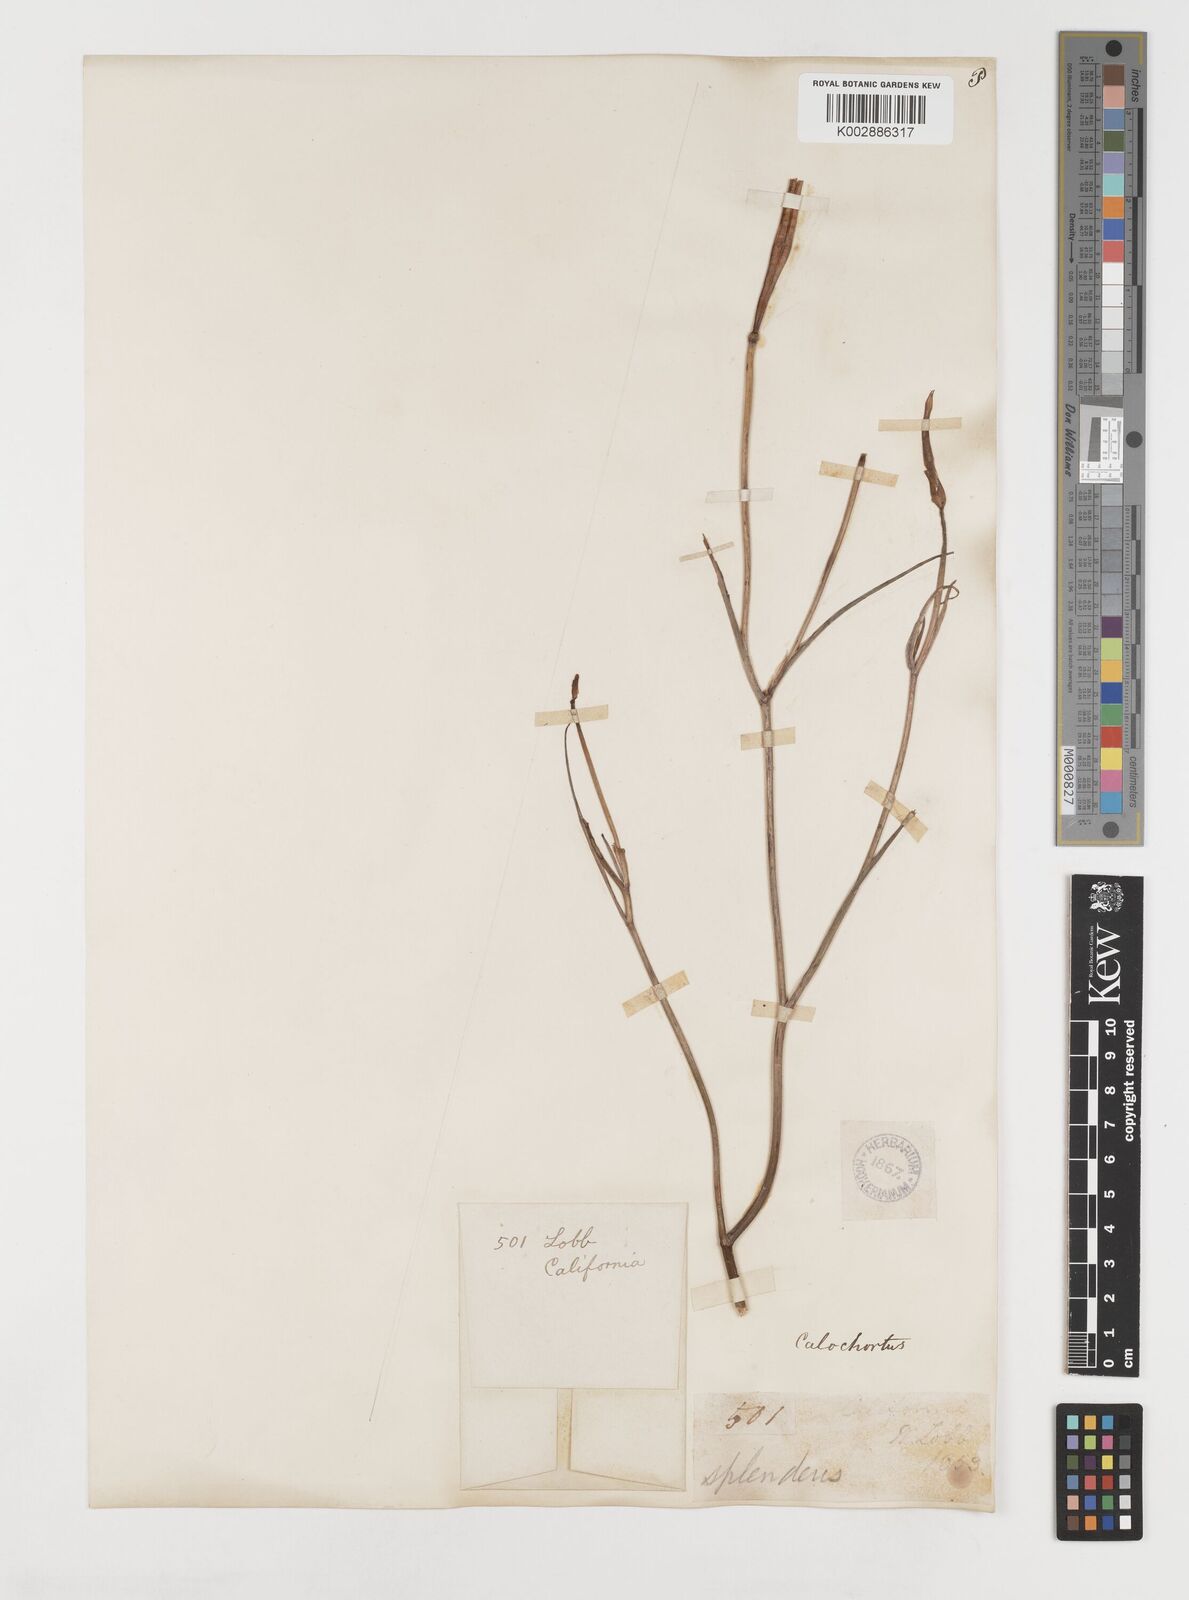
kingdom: Plantae
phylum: Tracheophyta
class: Liliopsida
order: Liliales
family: Liliaceae
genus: Calochortus
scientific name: Calochortus splendens
